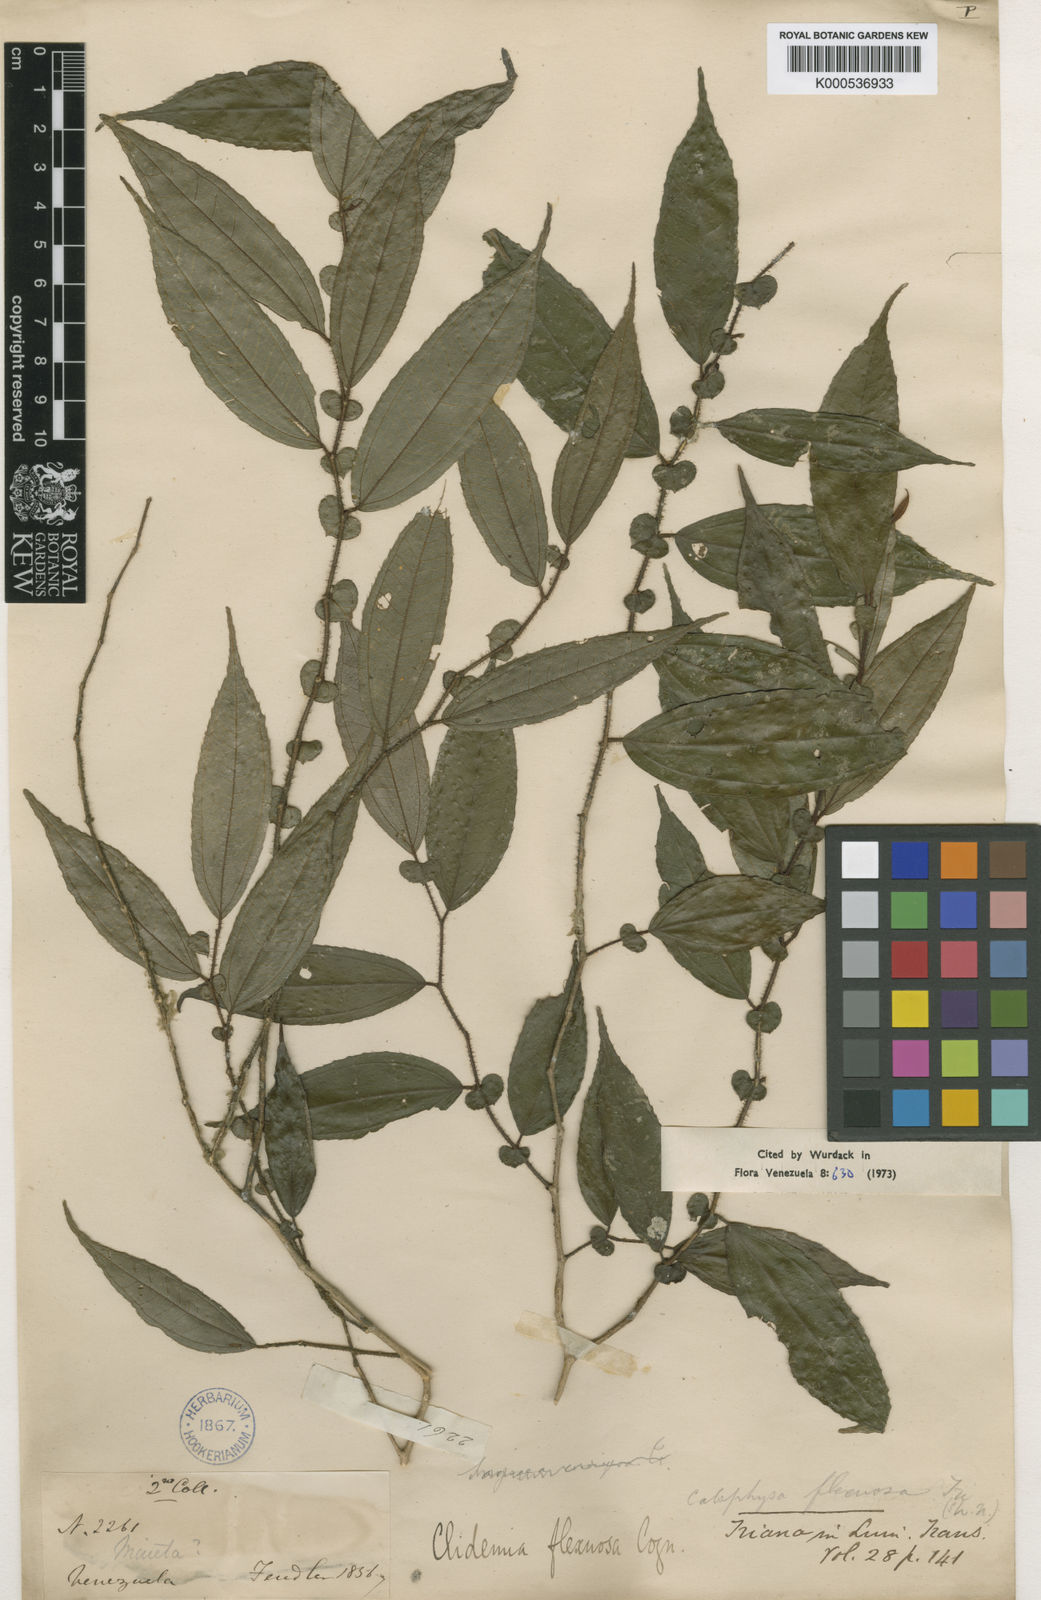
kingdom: Plantae
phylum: Tracheophyta
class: Magnoliopsida
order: Myrtales
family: Melastomataceae
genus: Miconia
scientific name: Miconia flexuosa
